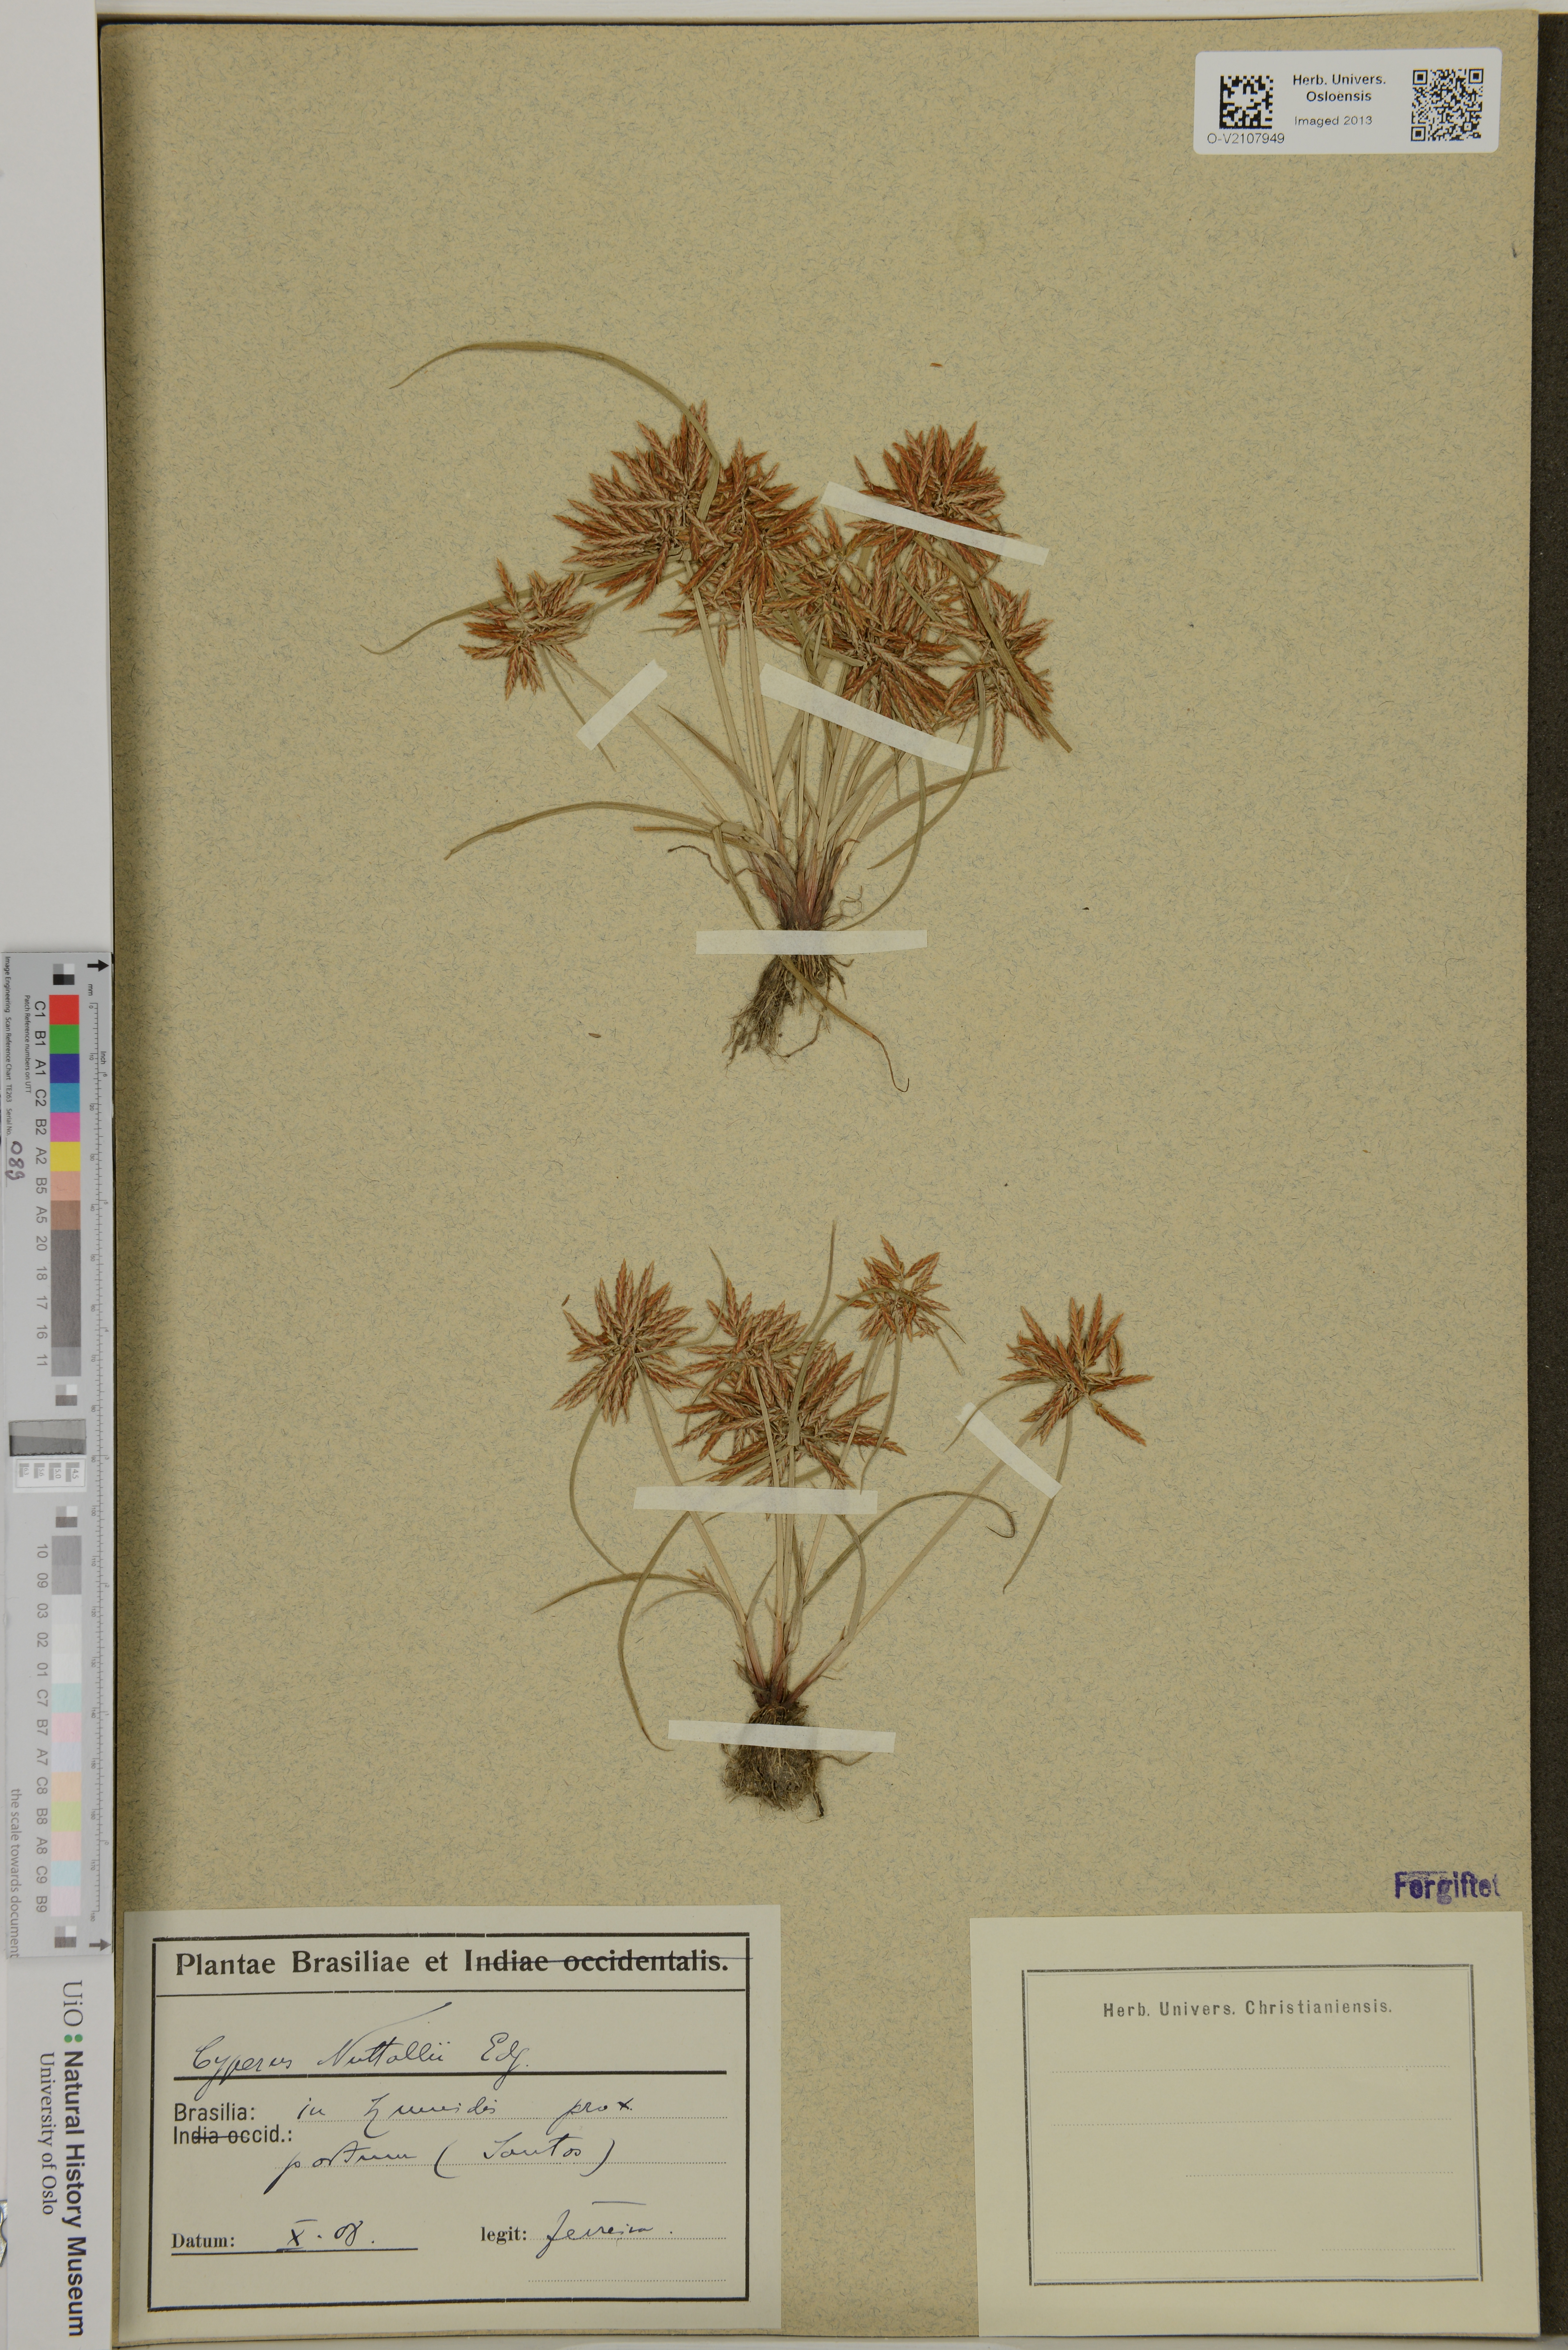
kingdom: Plantae
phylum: Tracheophyta
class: Liliopsida
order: Poales
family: Cyperaceae
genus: Cyperus
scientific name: Cyperus nuttallii
